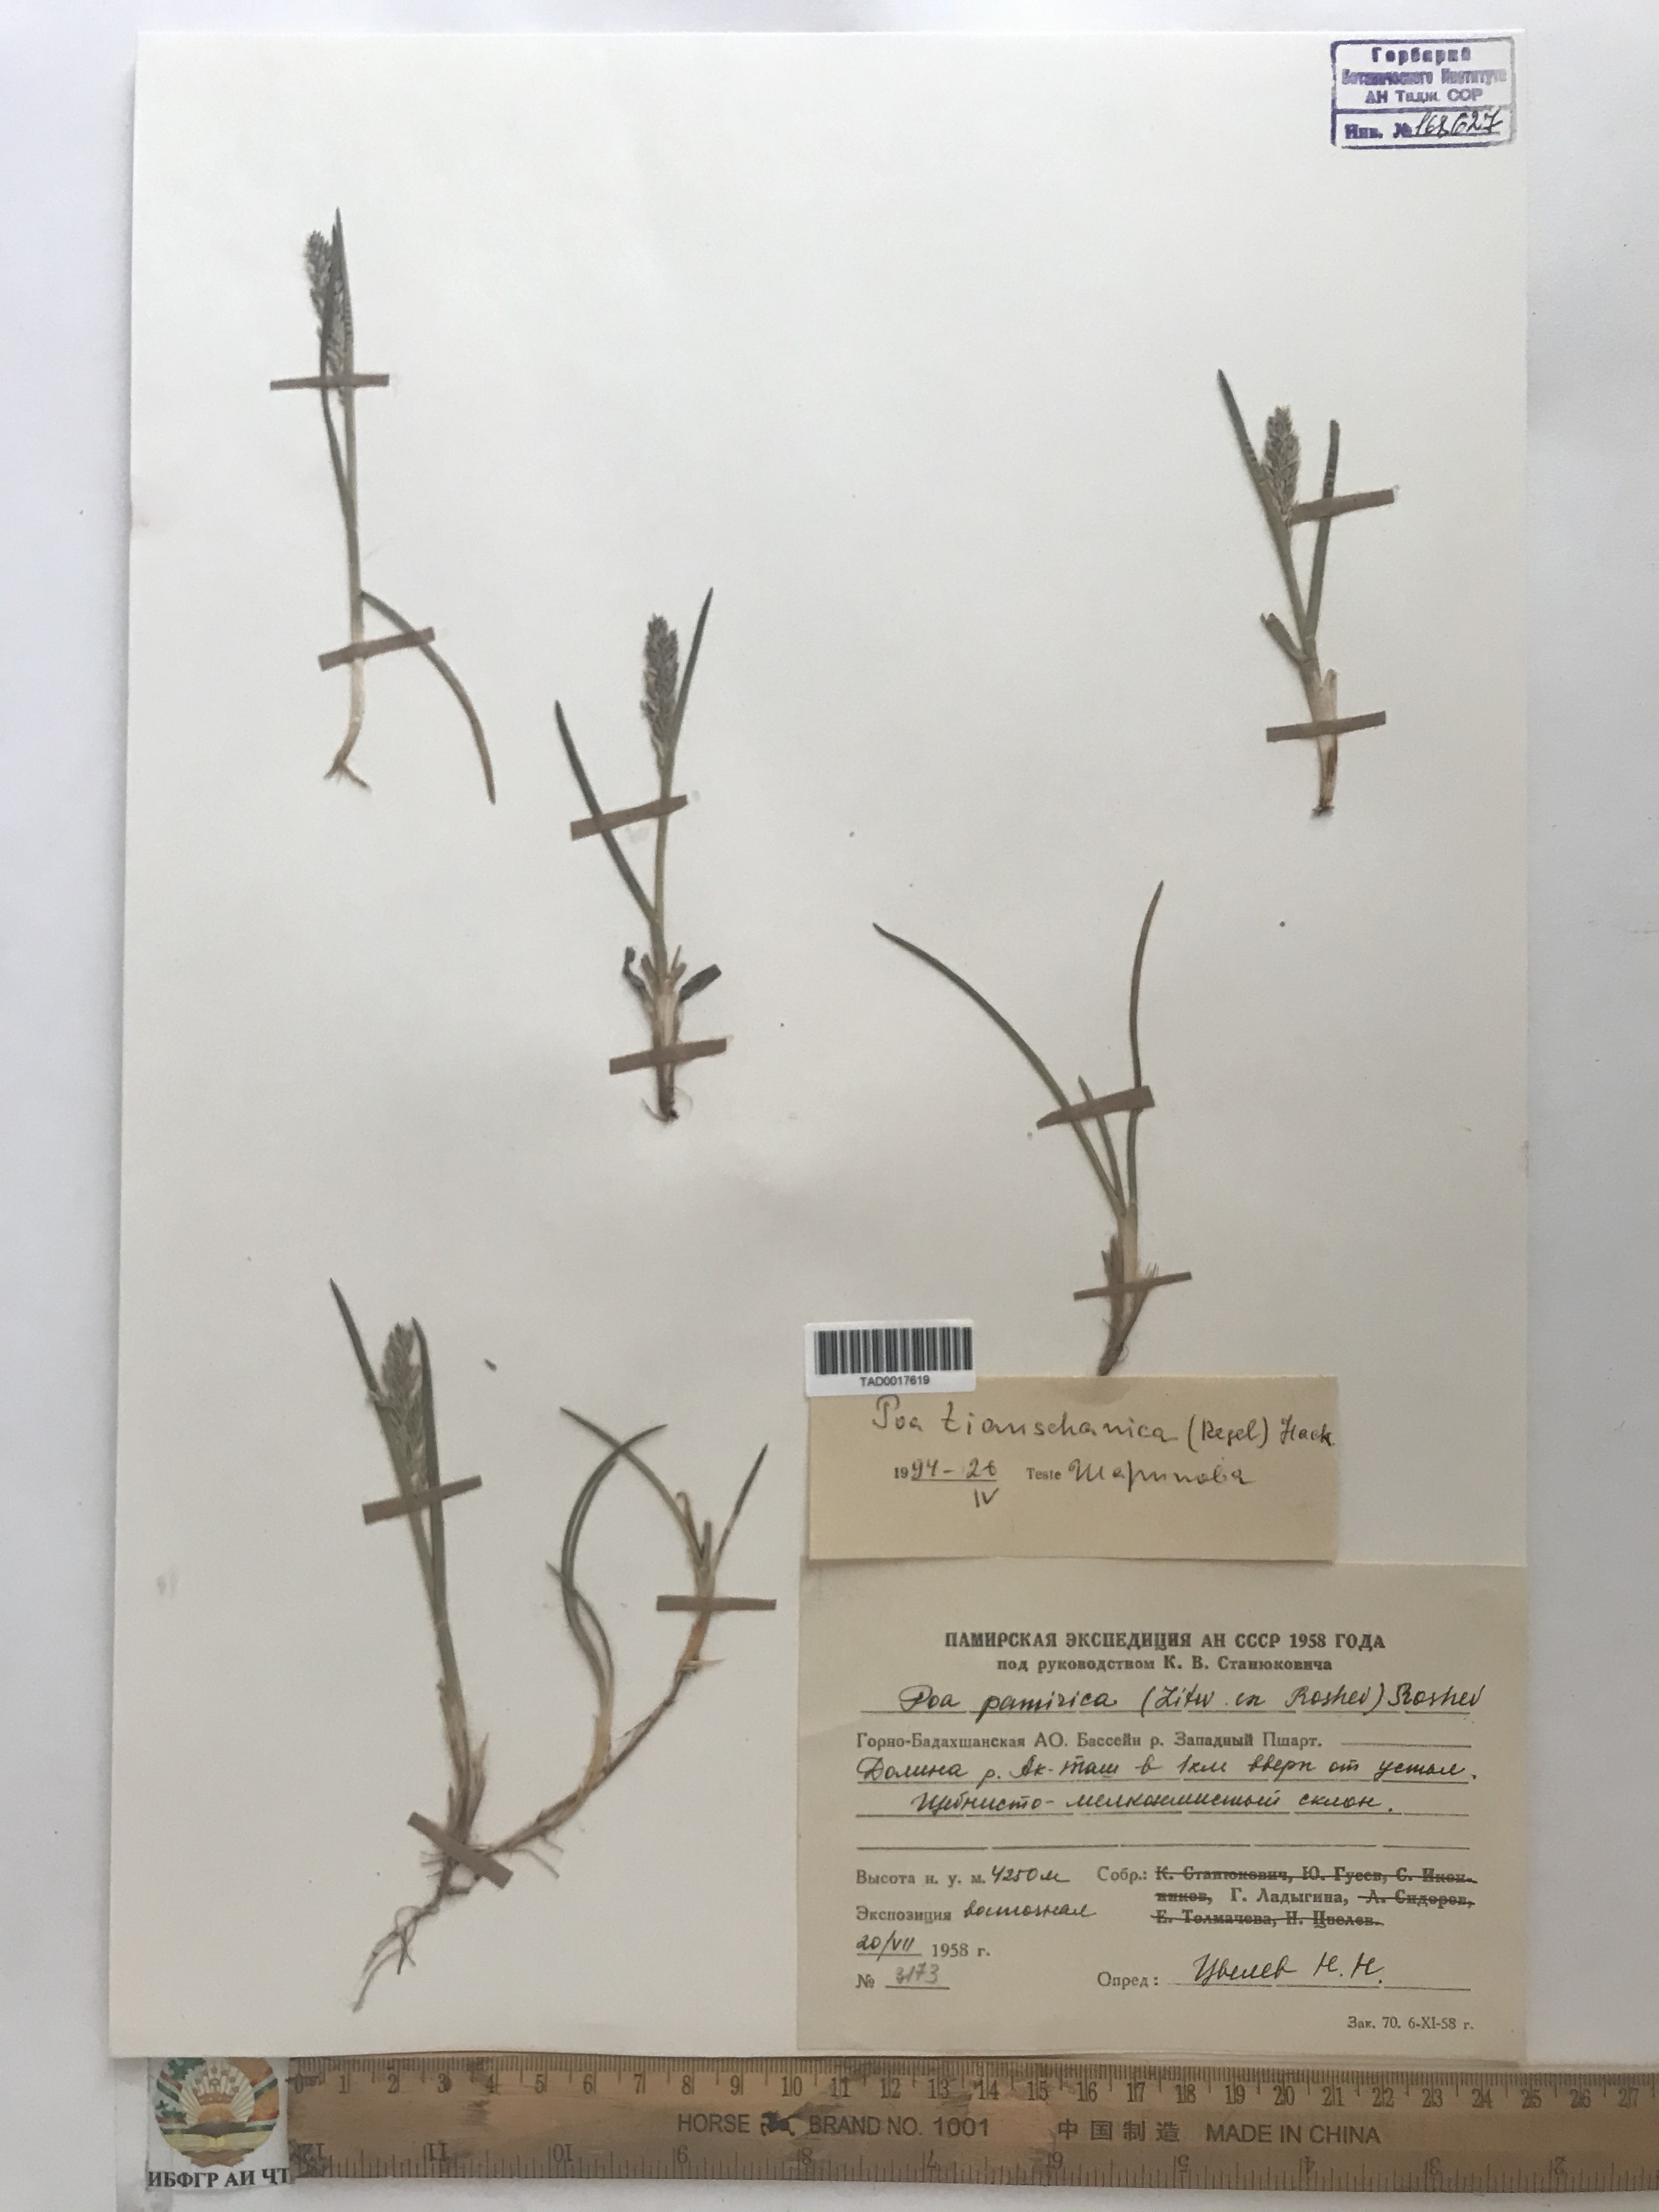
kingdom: Plantae
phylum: Tracheophyta
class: Liliopsida
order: Poales
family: Poaceae
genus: Poa
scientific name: Poa tianschanica
